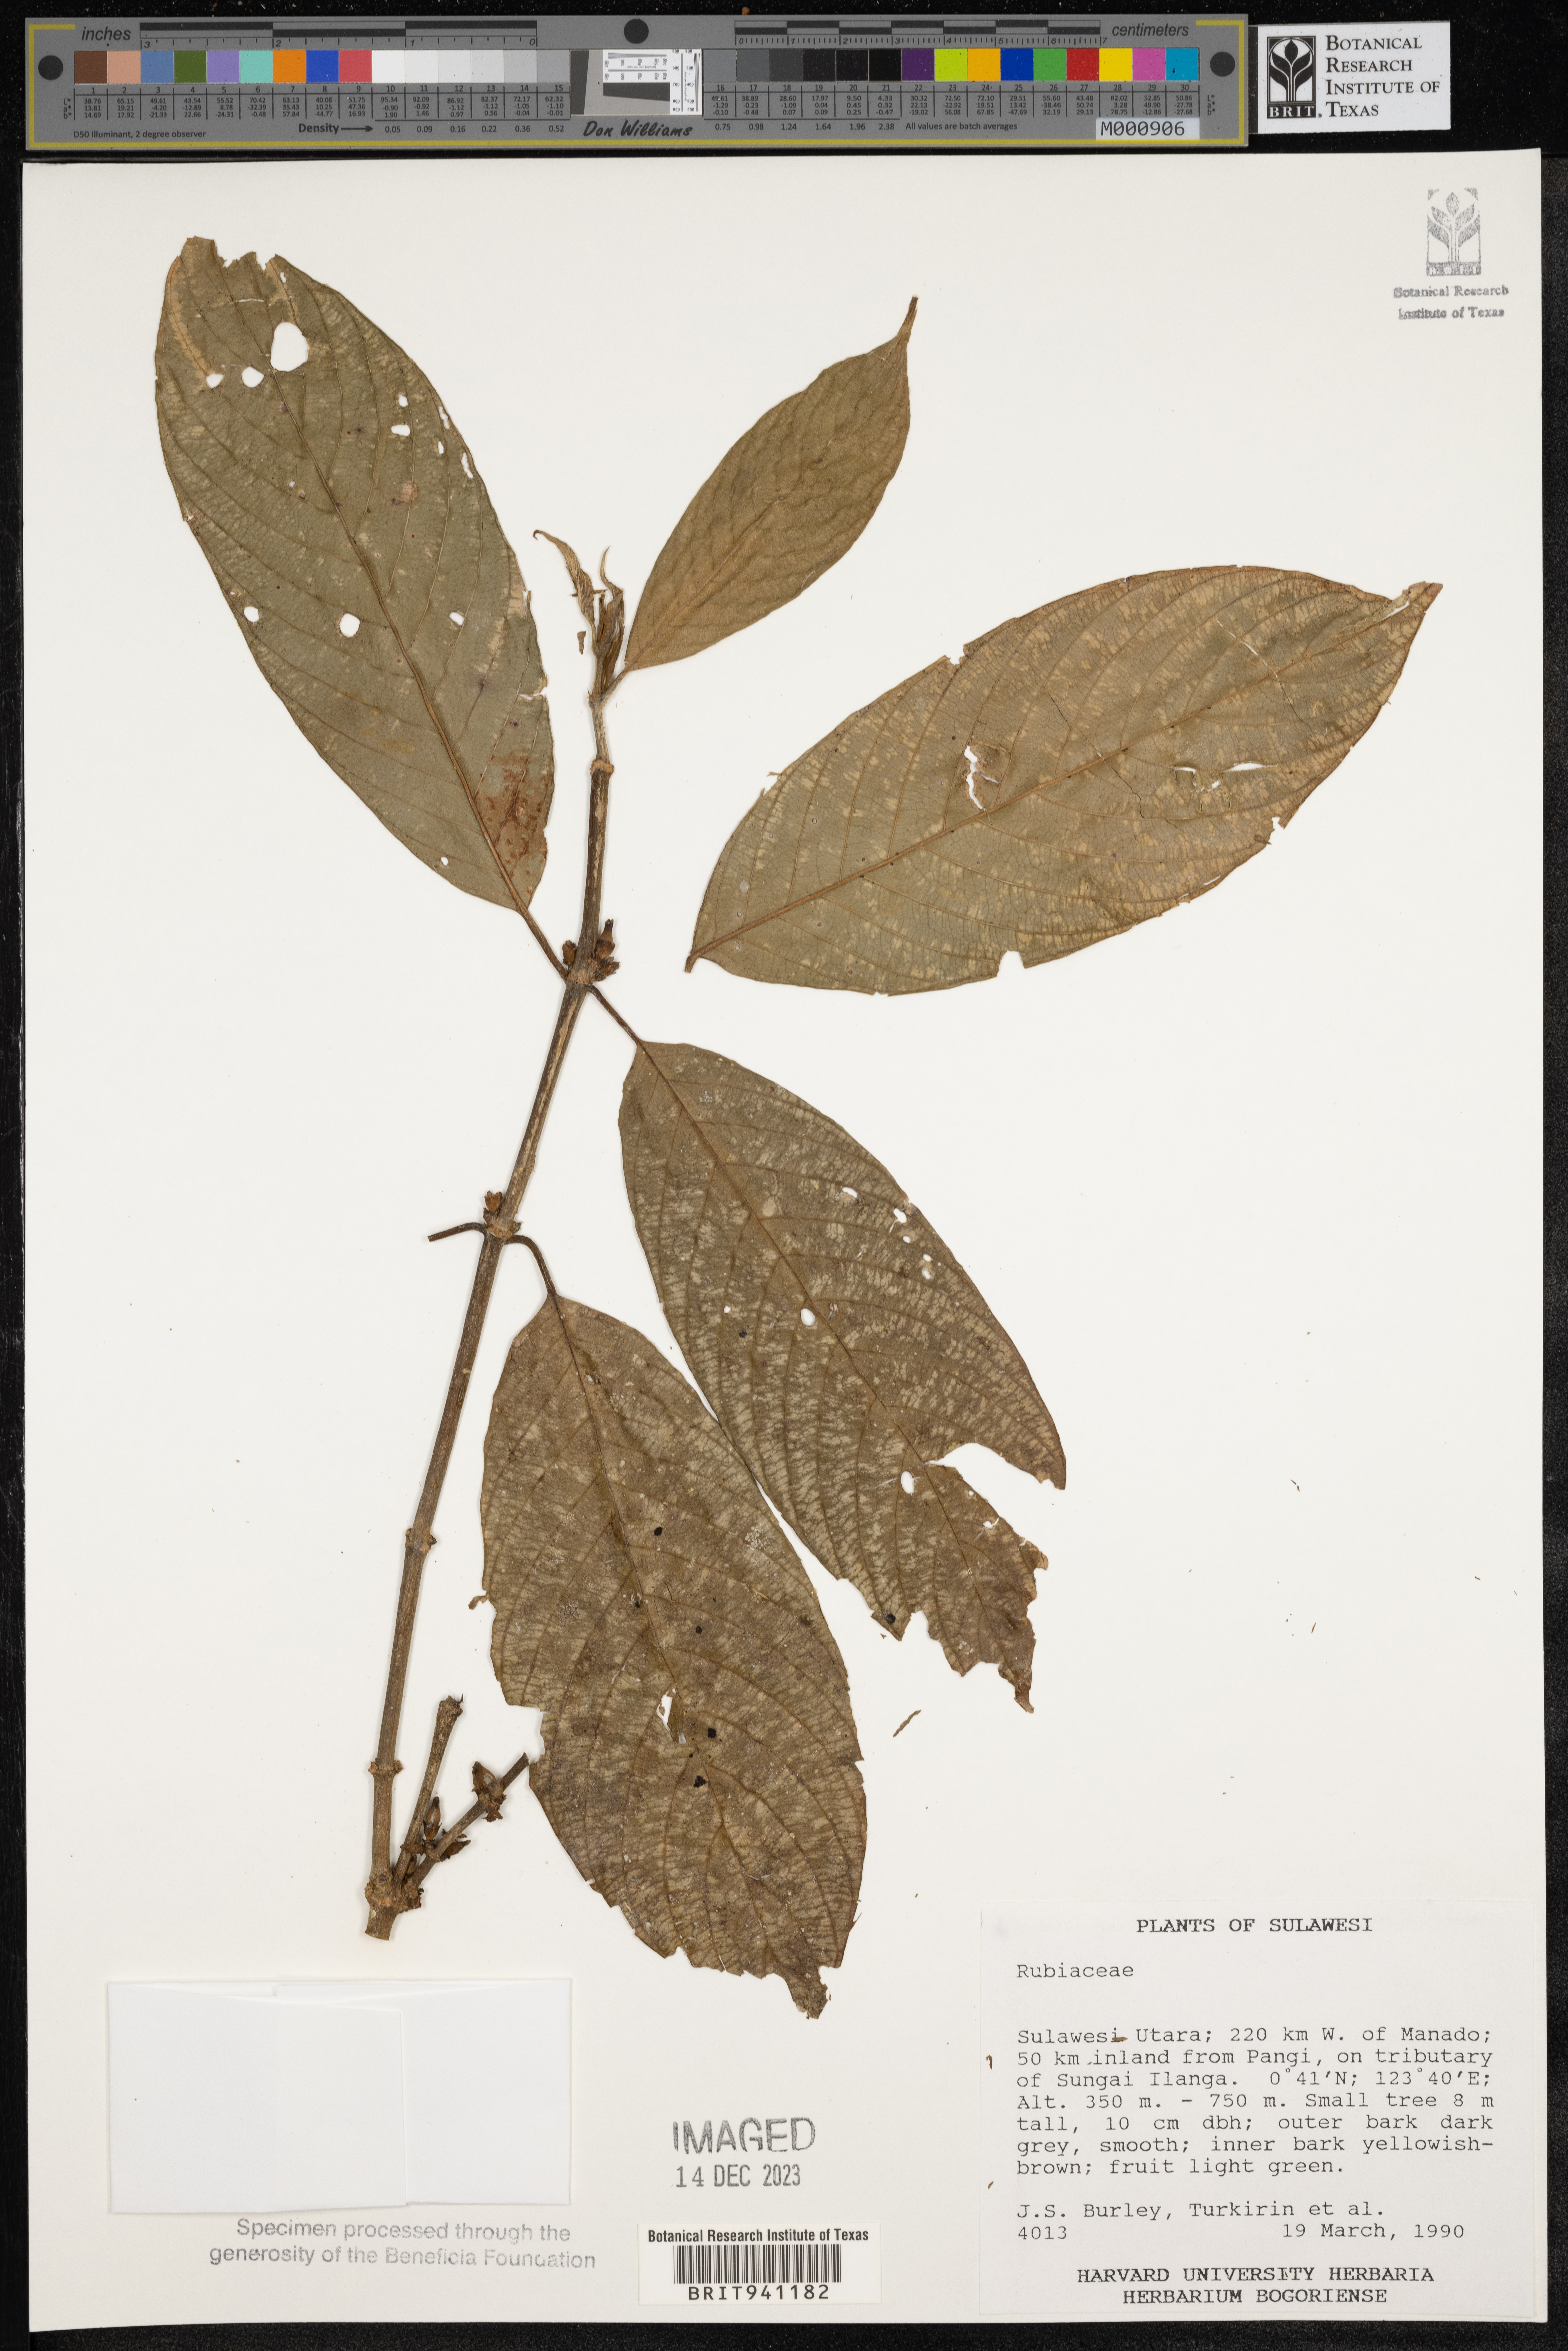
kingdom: Plantae
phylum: Tracheophyta
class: Magnoliopsida
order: Gentianales
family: Rubiaceae
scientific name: Rubiaceae
